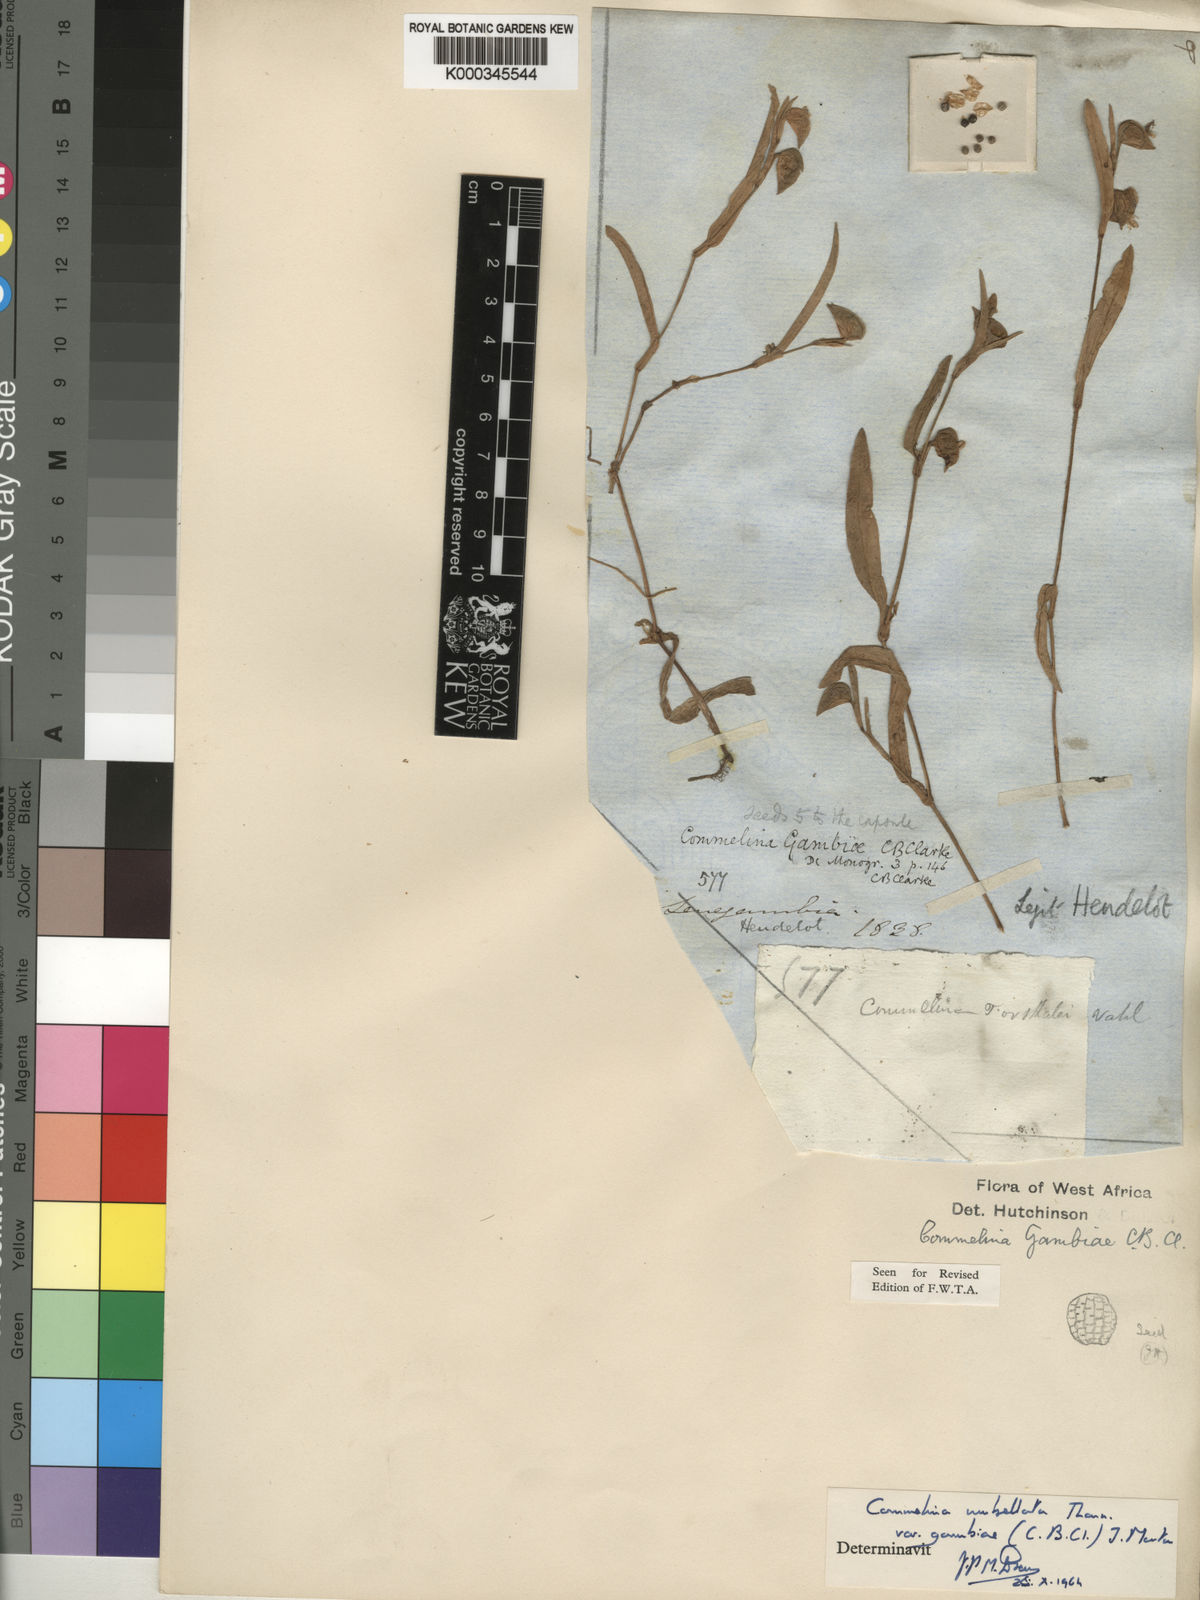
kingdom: Plantae
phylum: Tracheophyta
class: Liliopsida
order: Commelinales
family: Commelinaceae
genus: Commelina
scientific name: Commelina nigritana
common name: African dayflower
